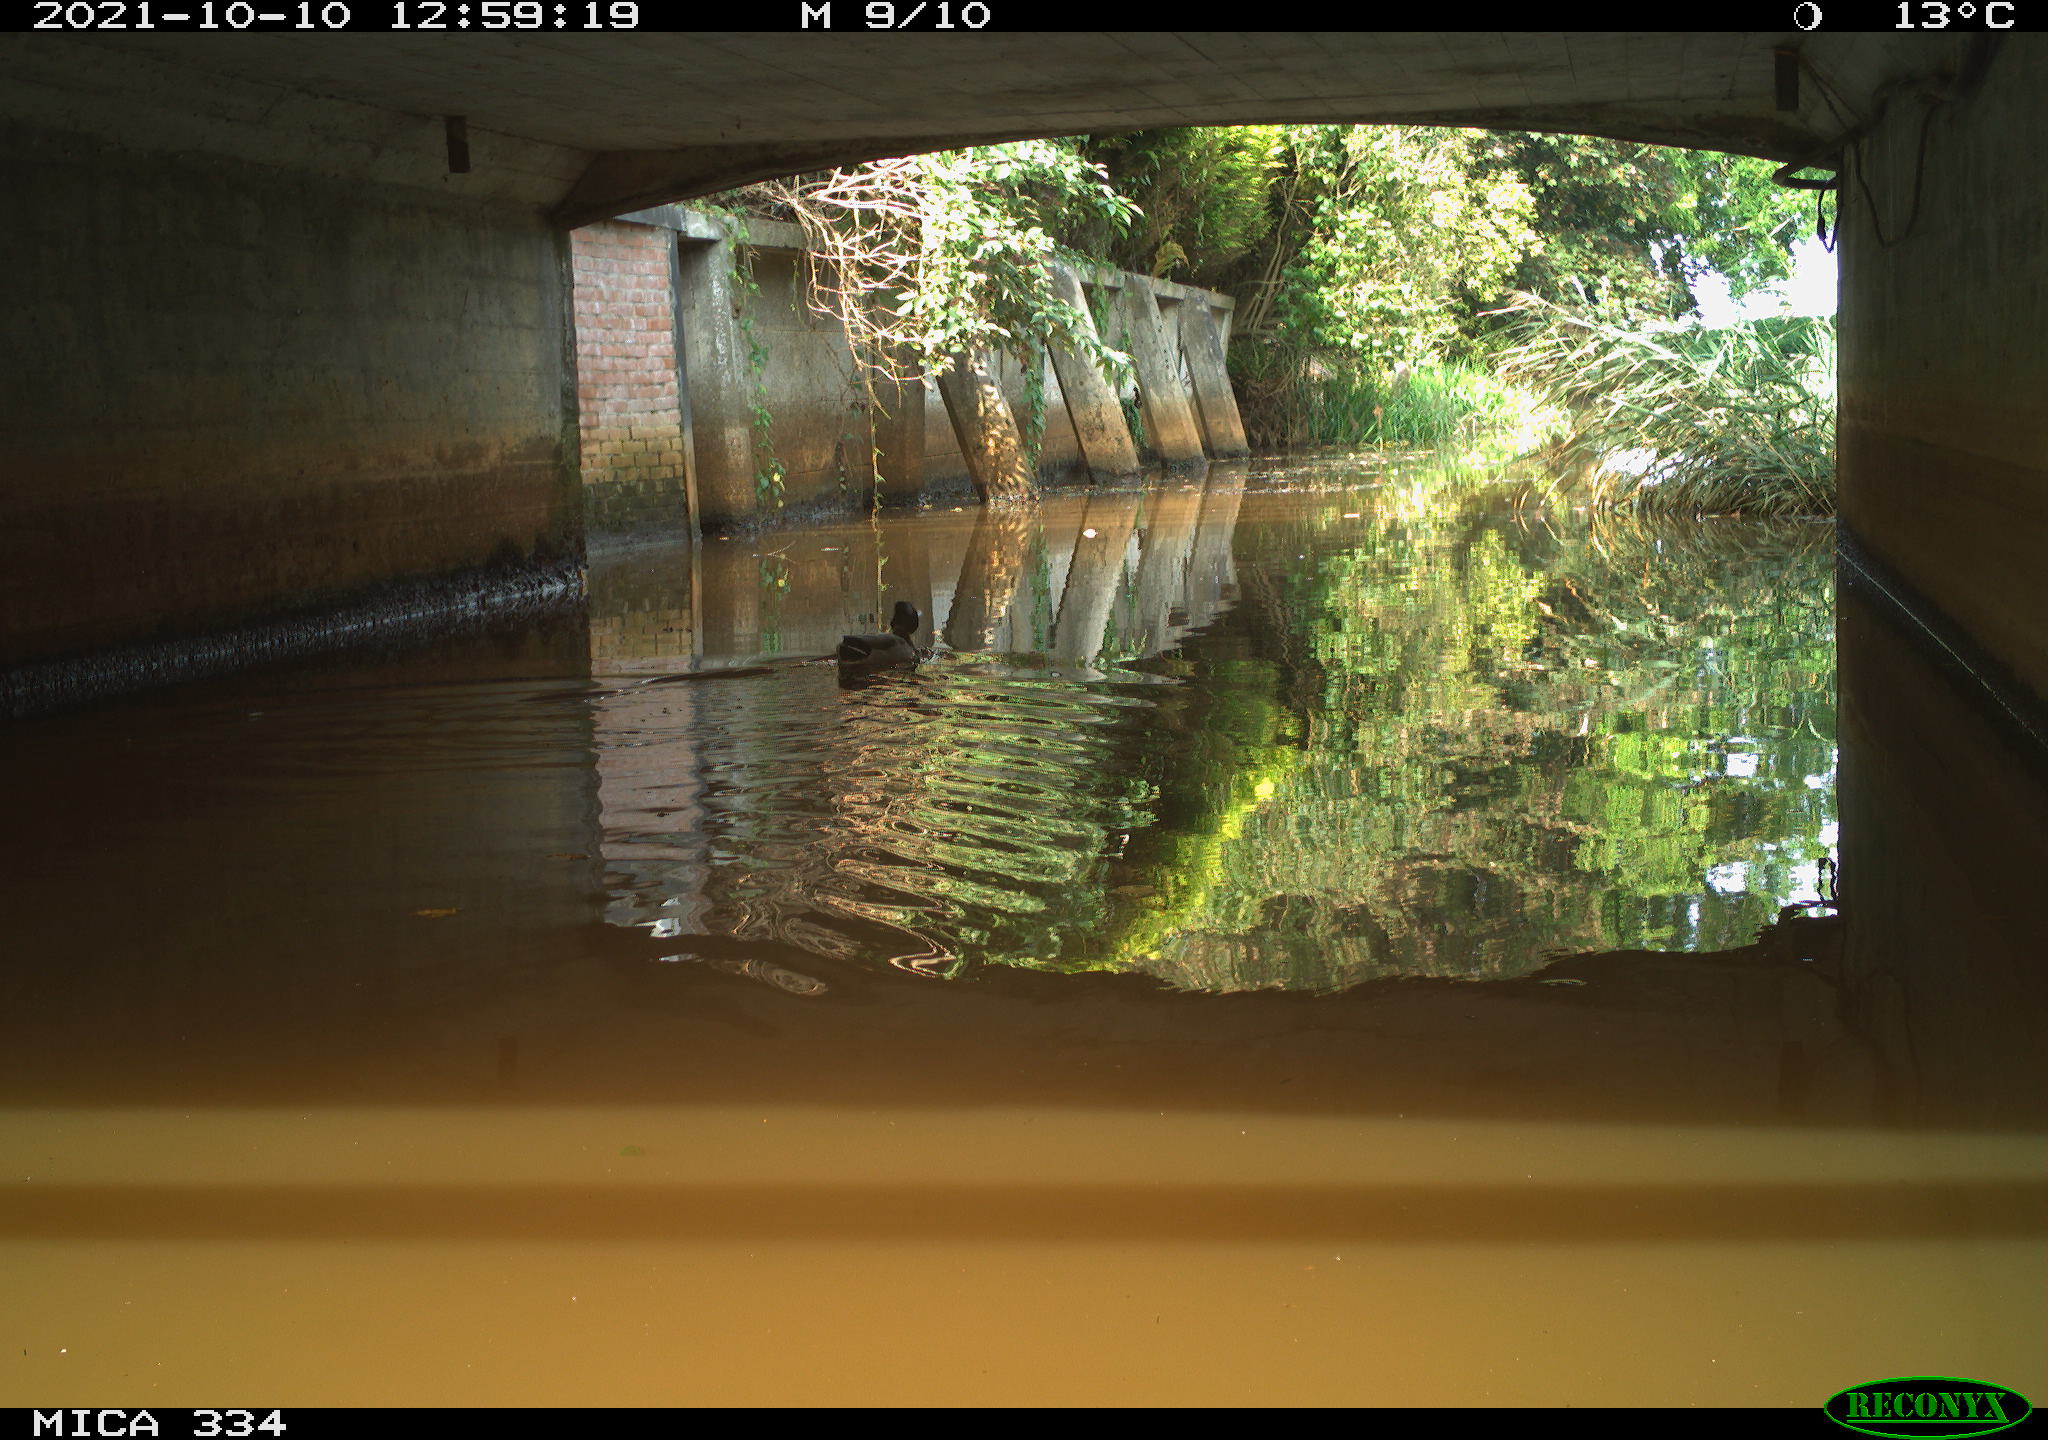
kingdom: Animalia
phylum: Chordata
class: Aves
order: Anseriformes
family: Anatidae
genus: Anas
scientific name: Anas platyrhynchos
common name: Mallard
